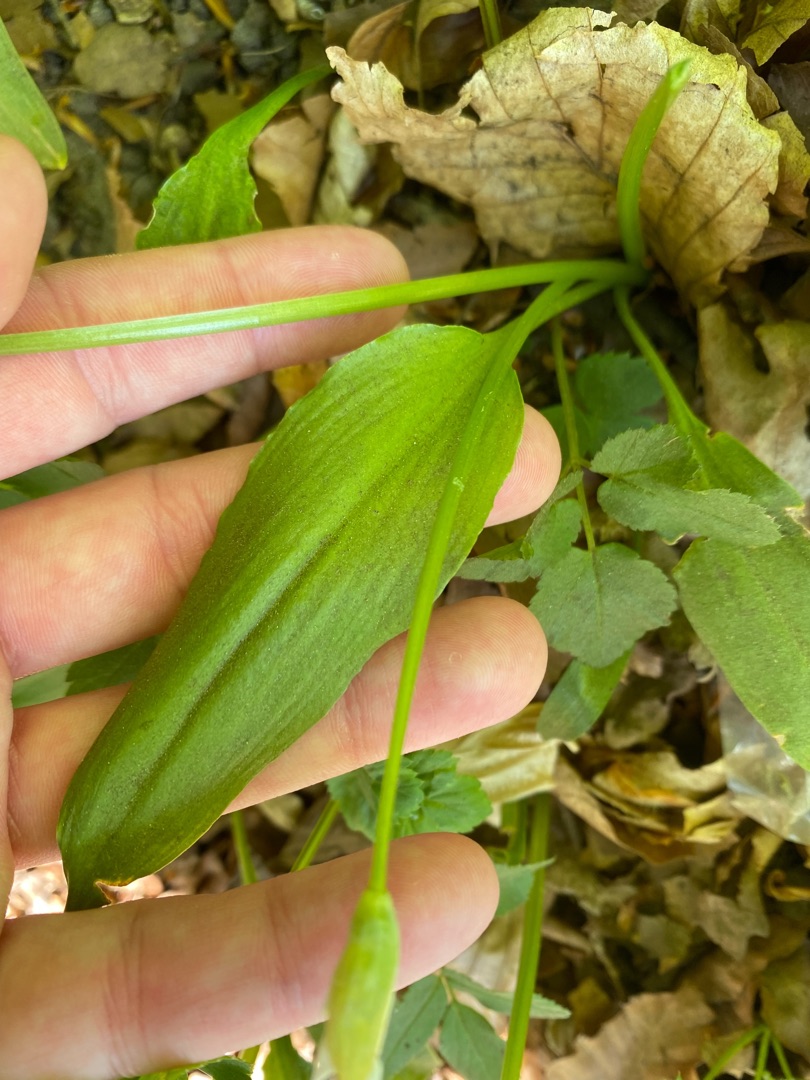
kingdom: Plantae
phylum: Tracheophyta
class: Liliopsida
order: Asparagales
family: Amaryllidaceae
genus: Allium
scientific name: Allium ursinum
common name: Rams-løg
